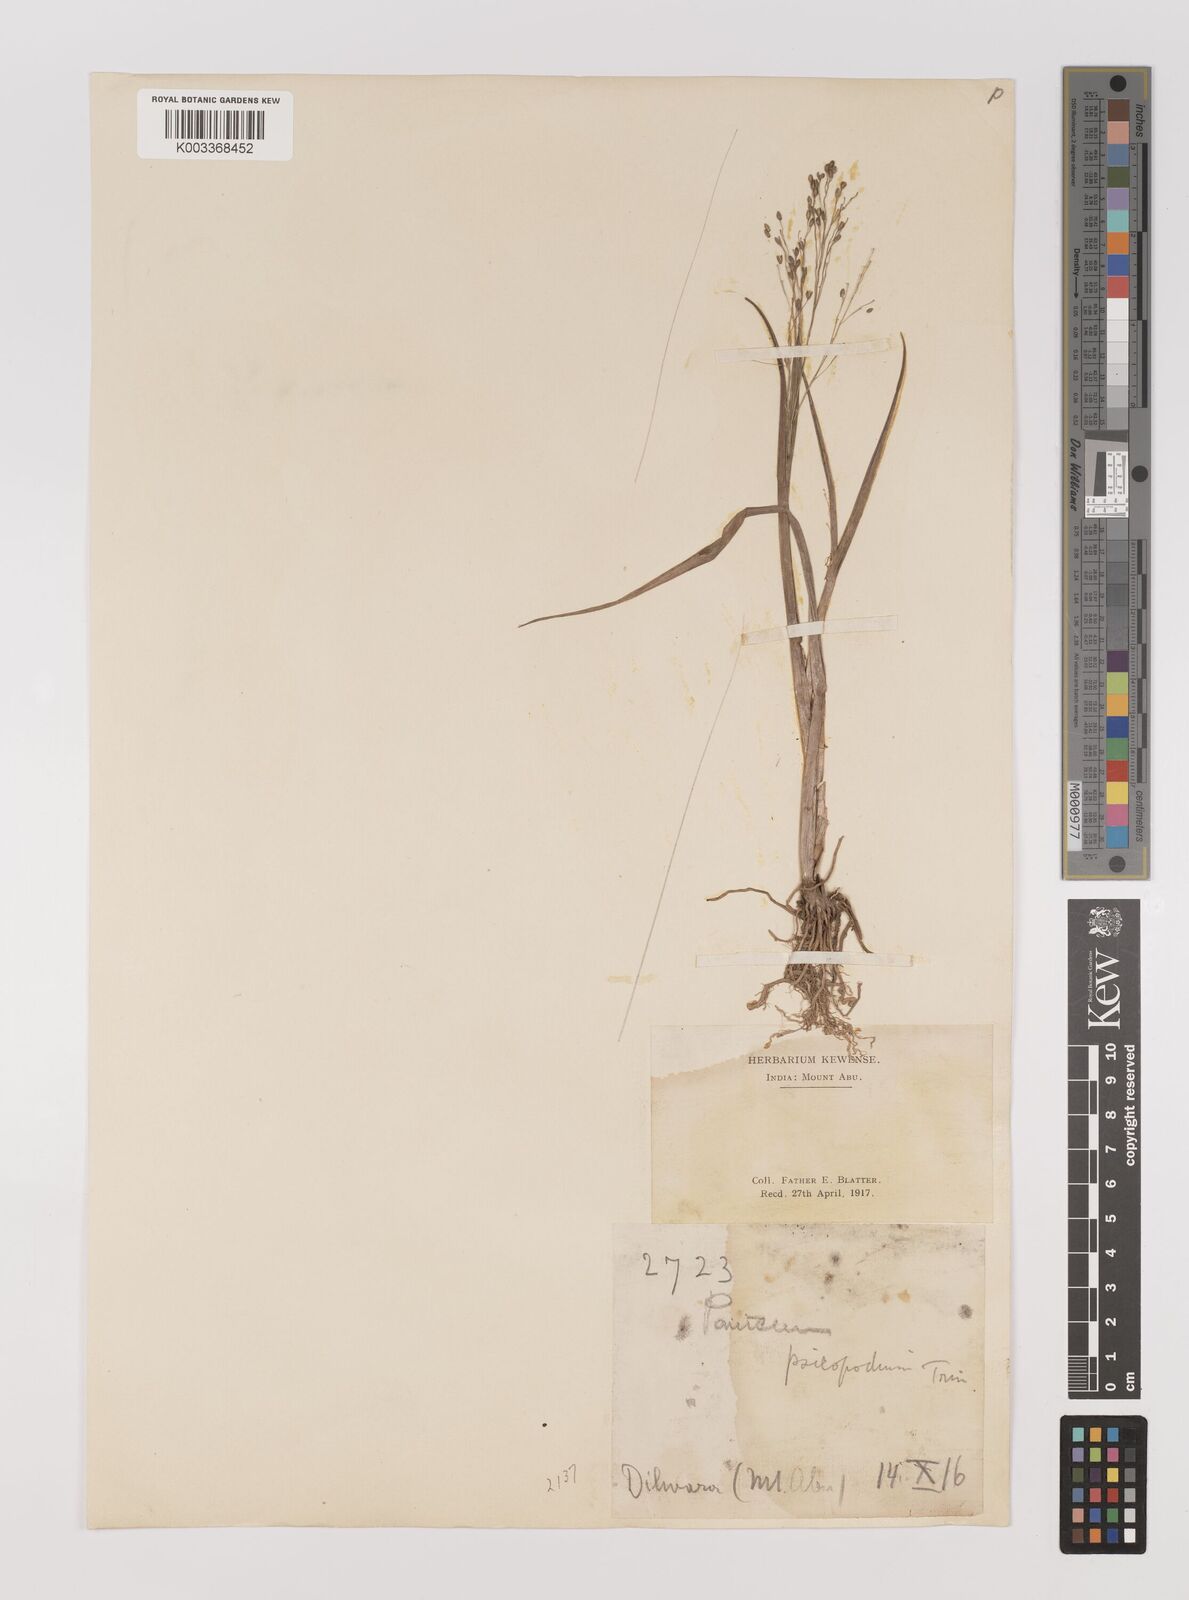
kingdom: Plantae
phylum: Tracheophyta
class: Liliopsida
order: Poales
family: Poaceae
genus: Panicum
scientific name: Panicum sumatrense
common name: Little millet
